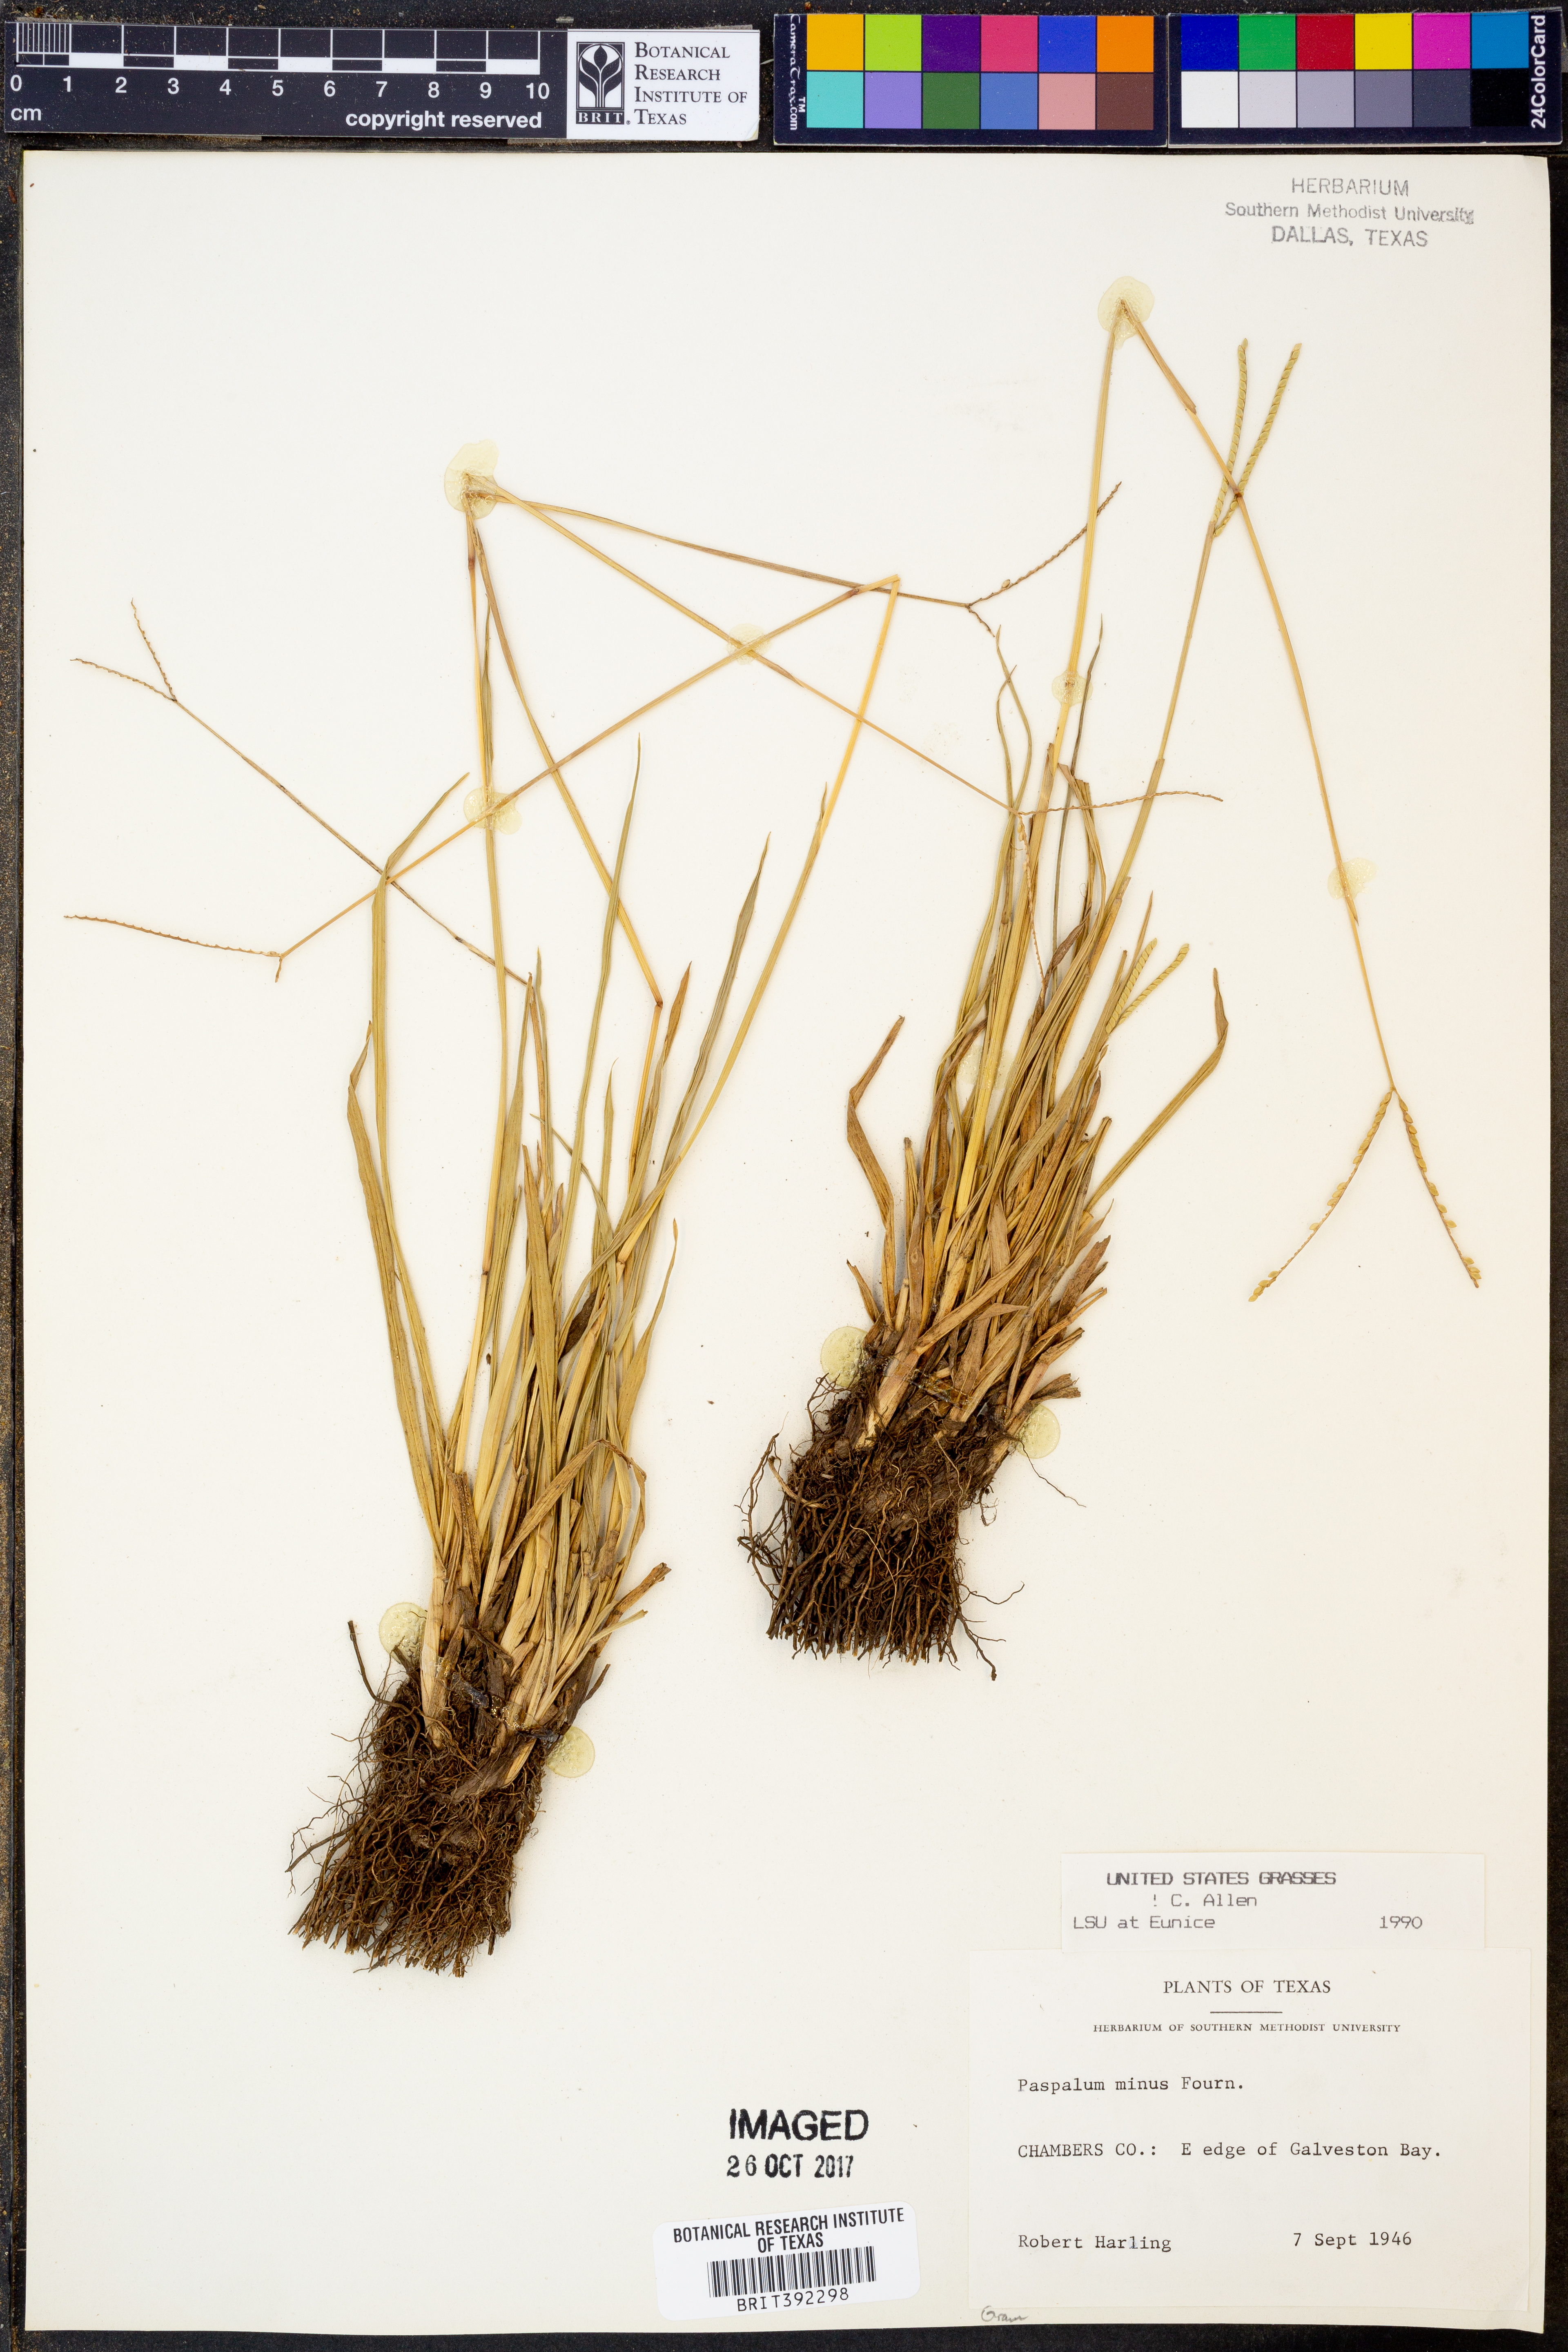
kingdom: Plantae
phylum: Tracheophyta
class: Liliopsida
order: Poales
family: Poaceae
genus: Paspalum
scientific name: Paspalum minus
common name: Matted paspalum
